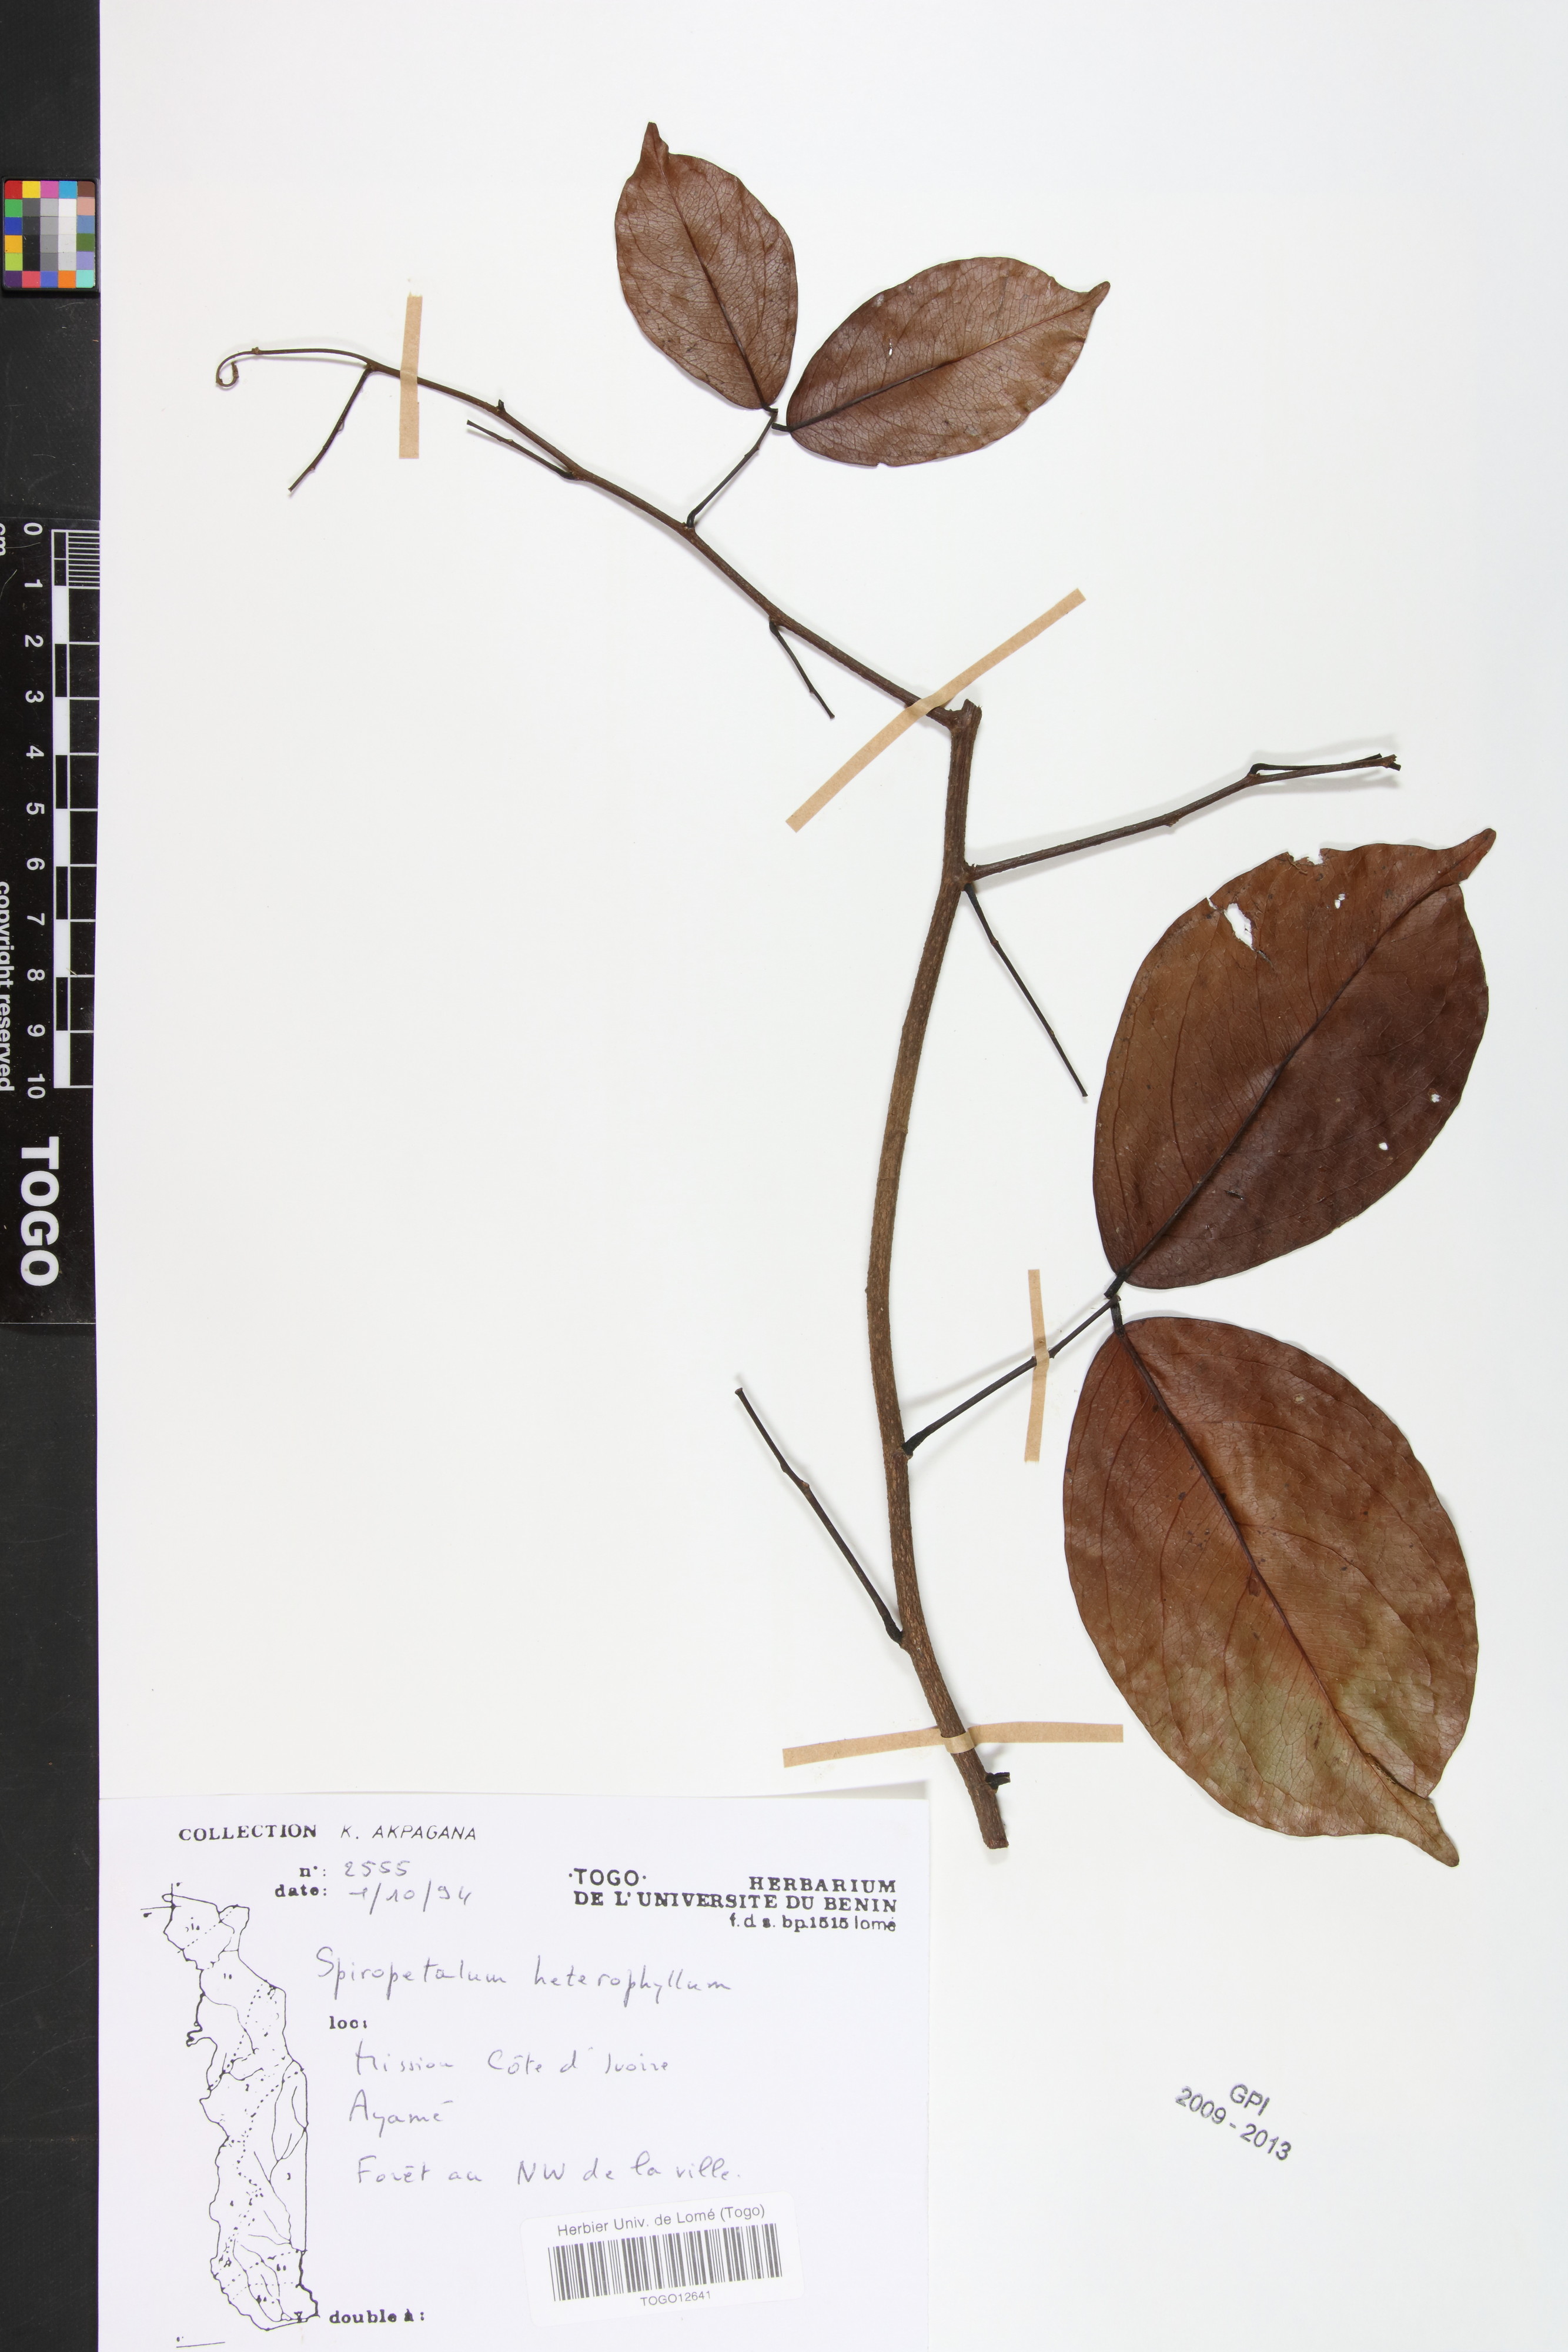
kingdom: Plantae
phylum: Tracheophyta
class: Magnoliopsida
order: Oxalidales
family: Connaraceae
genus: Rourea
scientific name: Rourea solanderi
